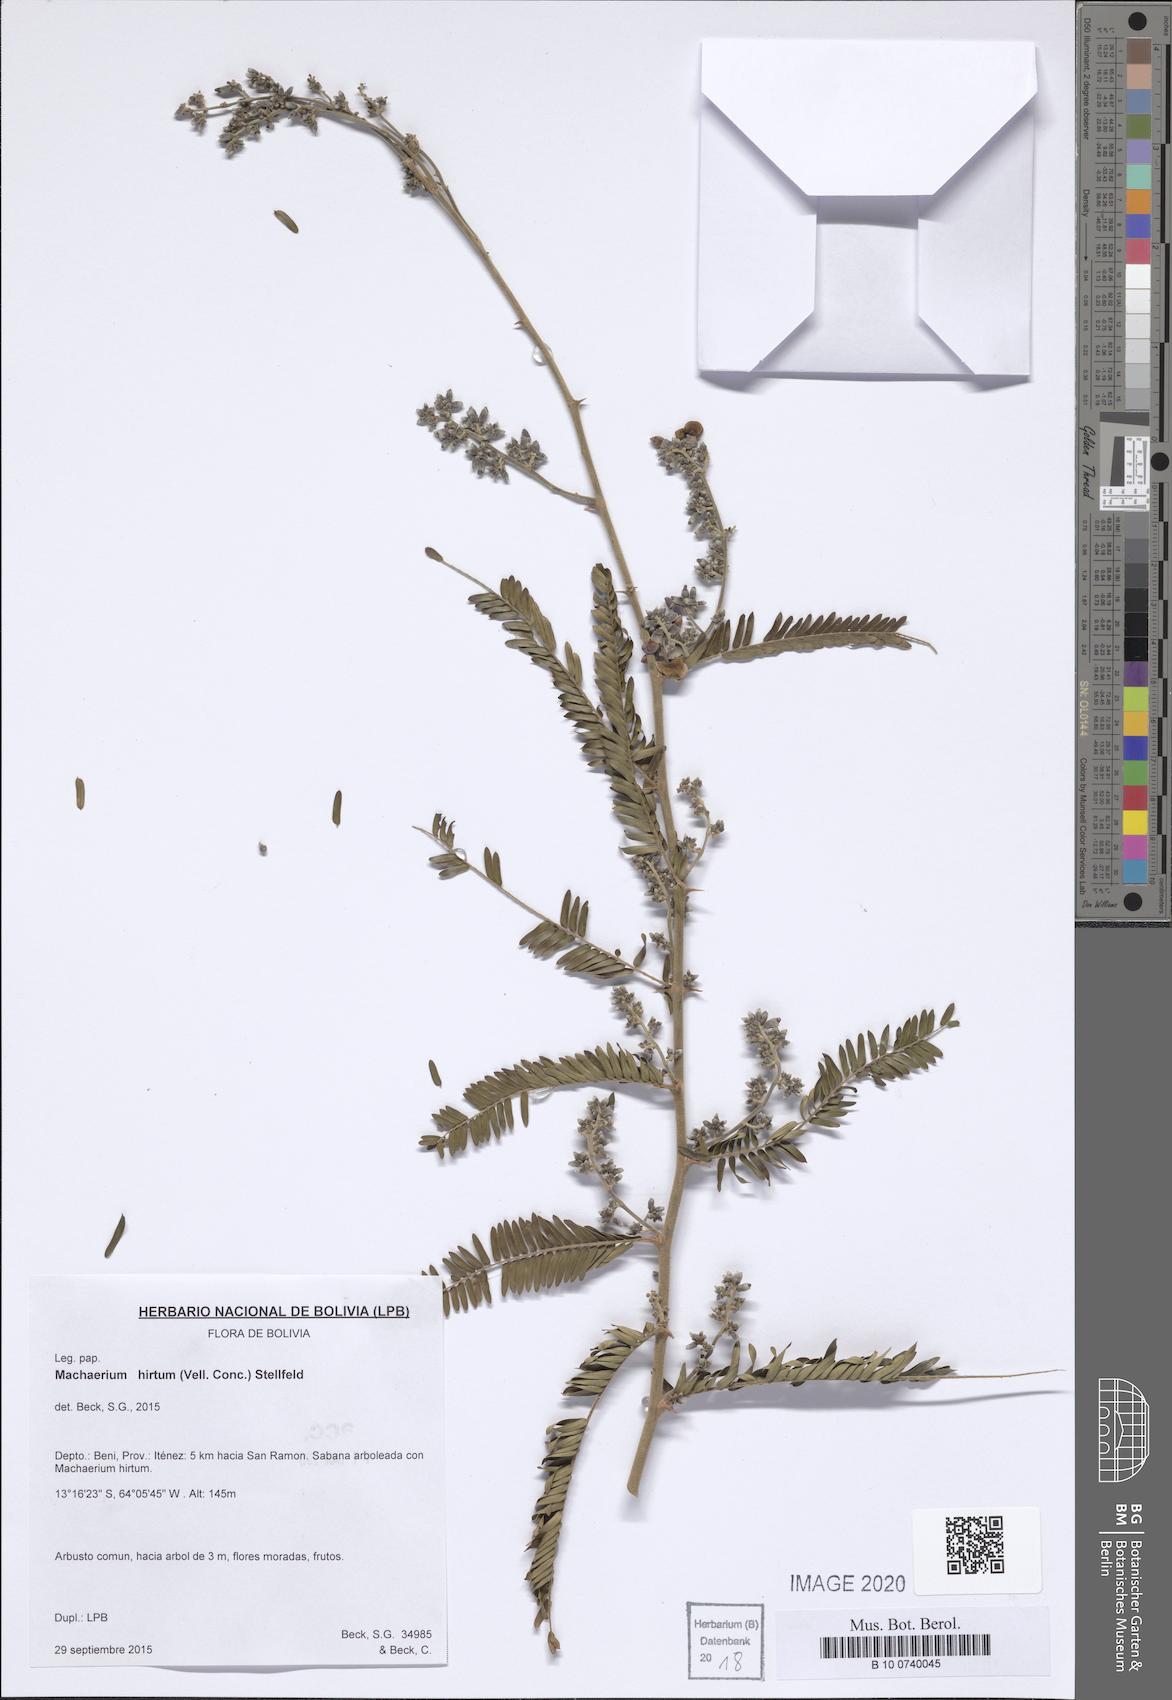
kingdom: Plantae
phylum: Tracheophyta
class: Magnoliopsida
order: Fabales
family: Fabaceae
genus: Machaerium
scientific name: Machaerium hirtum
